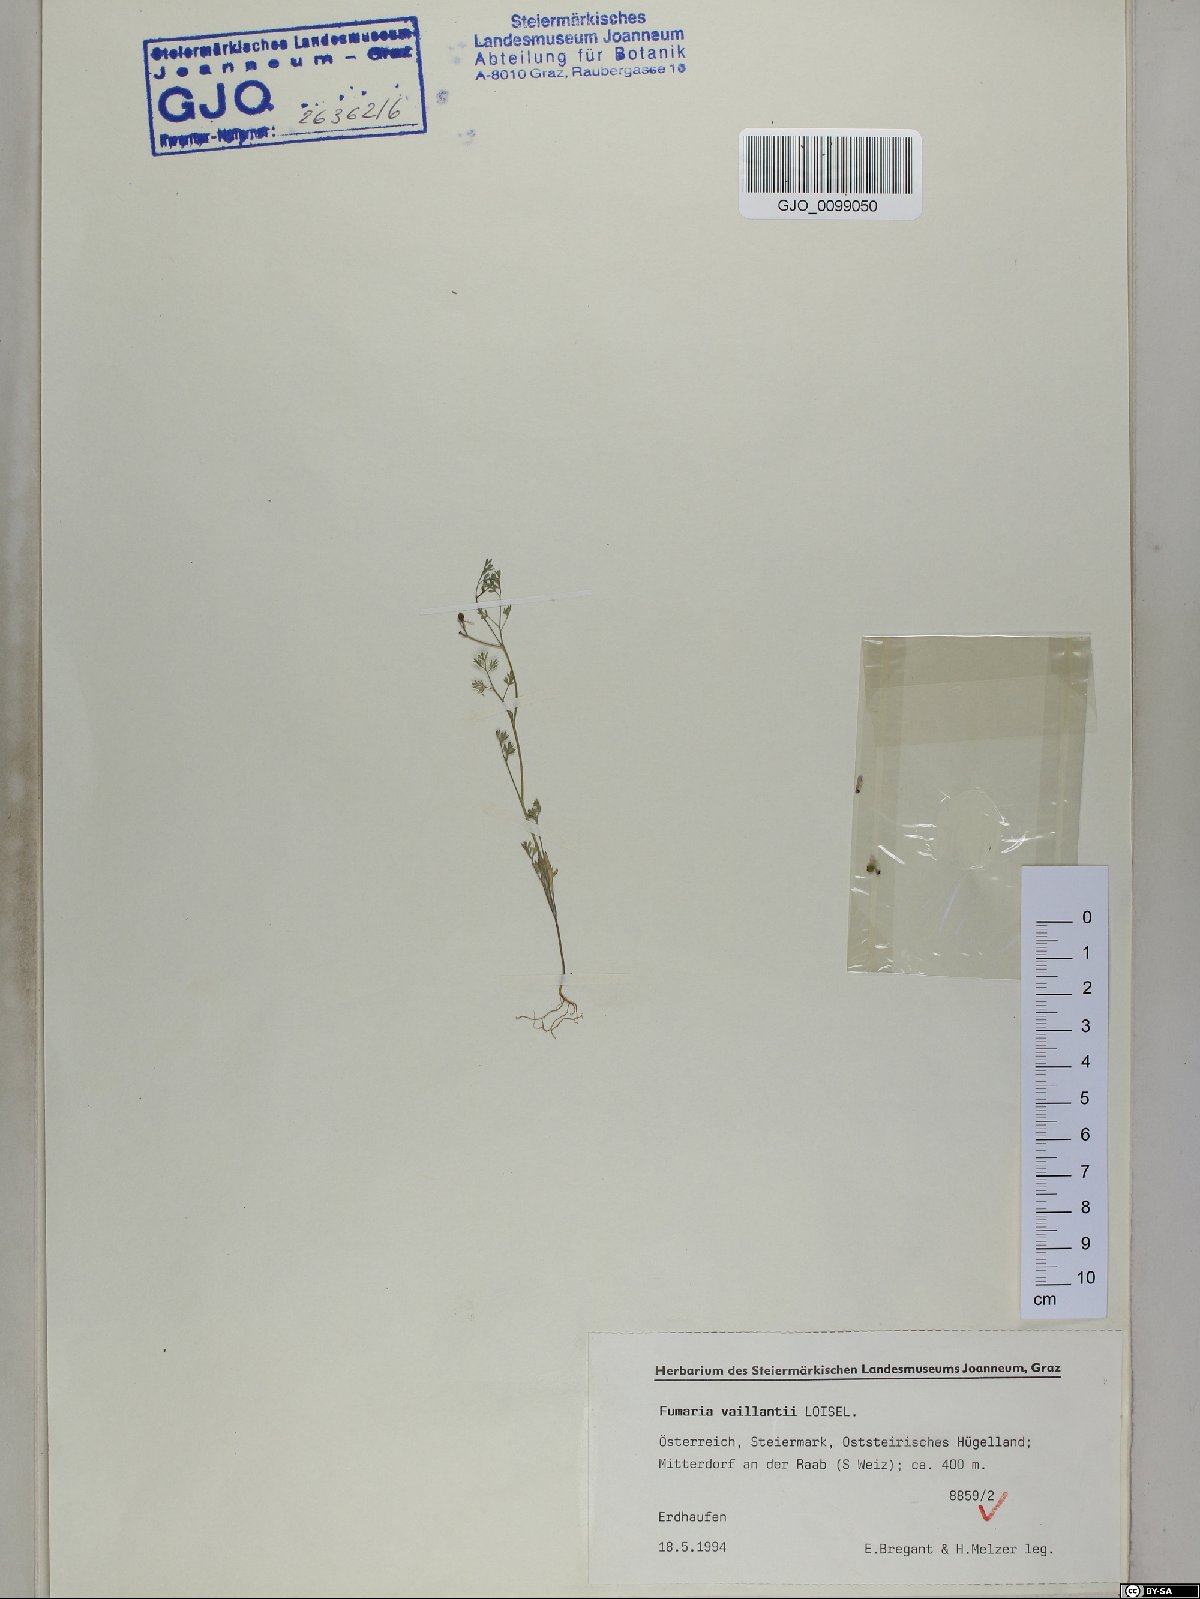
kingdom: Plantae
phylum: Tracheophyta
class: Magnoliopsida
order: Ranunculales
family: Papaveraceae
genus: Fumaria
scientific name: Fumaria vaillantii
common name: Few-flowered fumitory
